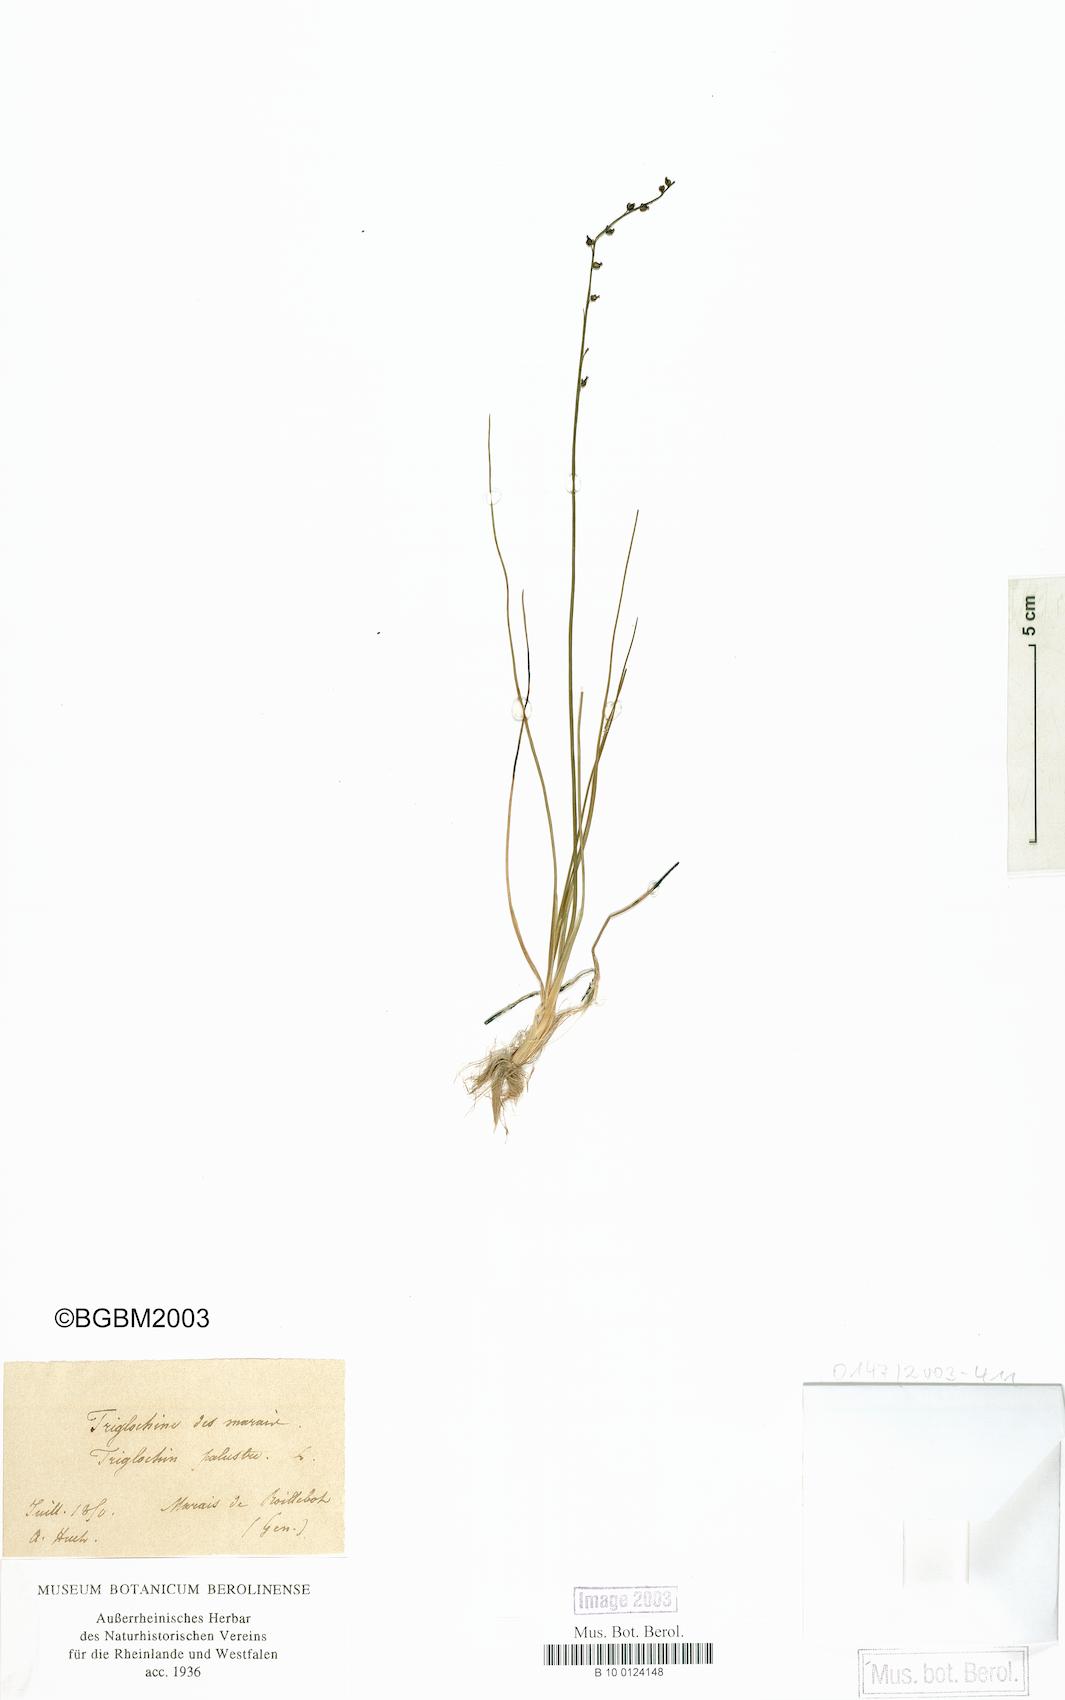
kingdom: Plantae
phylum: Tracheophyta
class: Liliopsida
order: Alismatales
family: Juncaginaceae
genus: Triglochin
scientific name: Triglochin palustris
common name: Marsh arrowgrass
